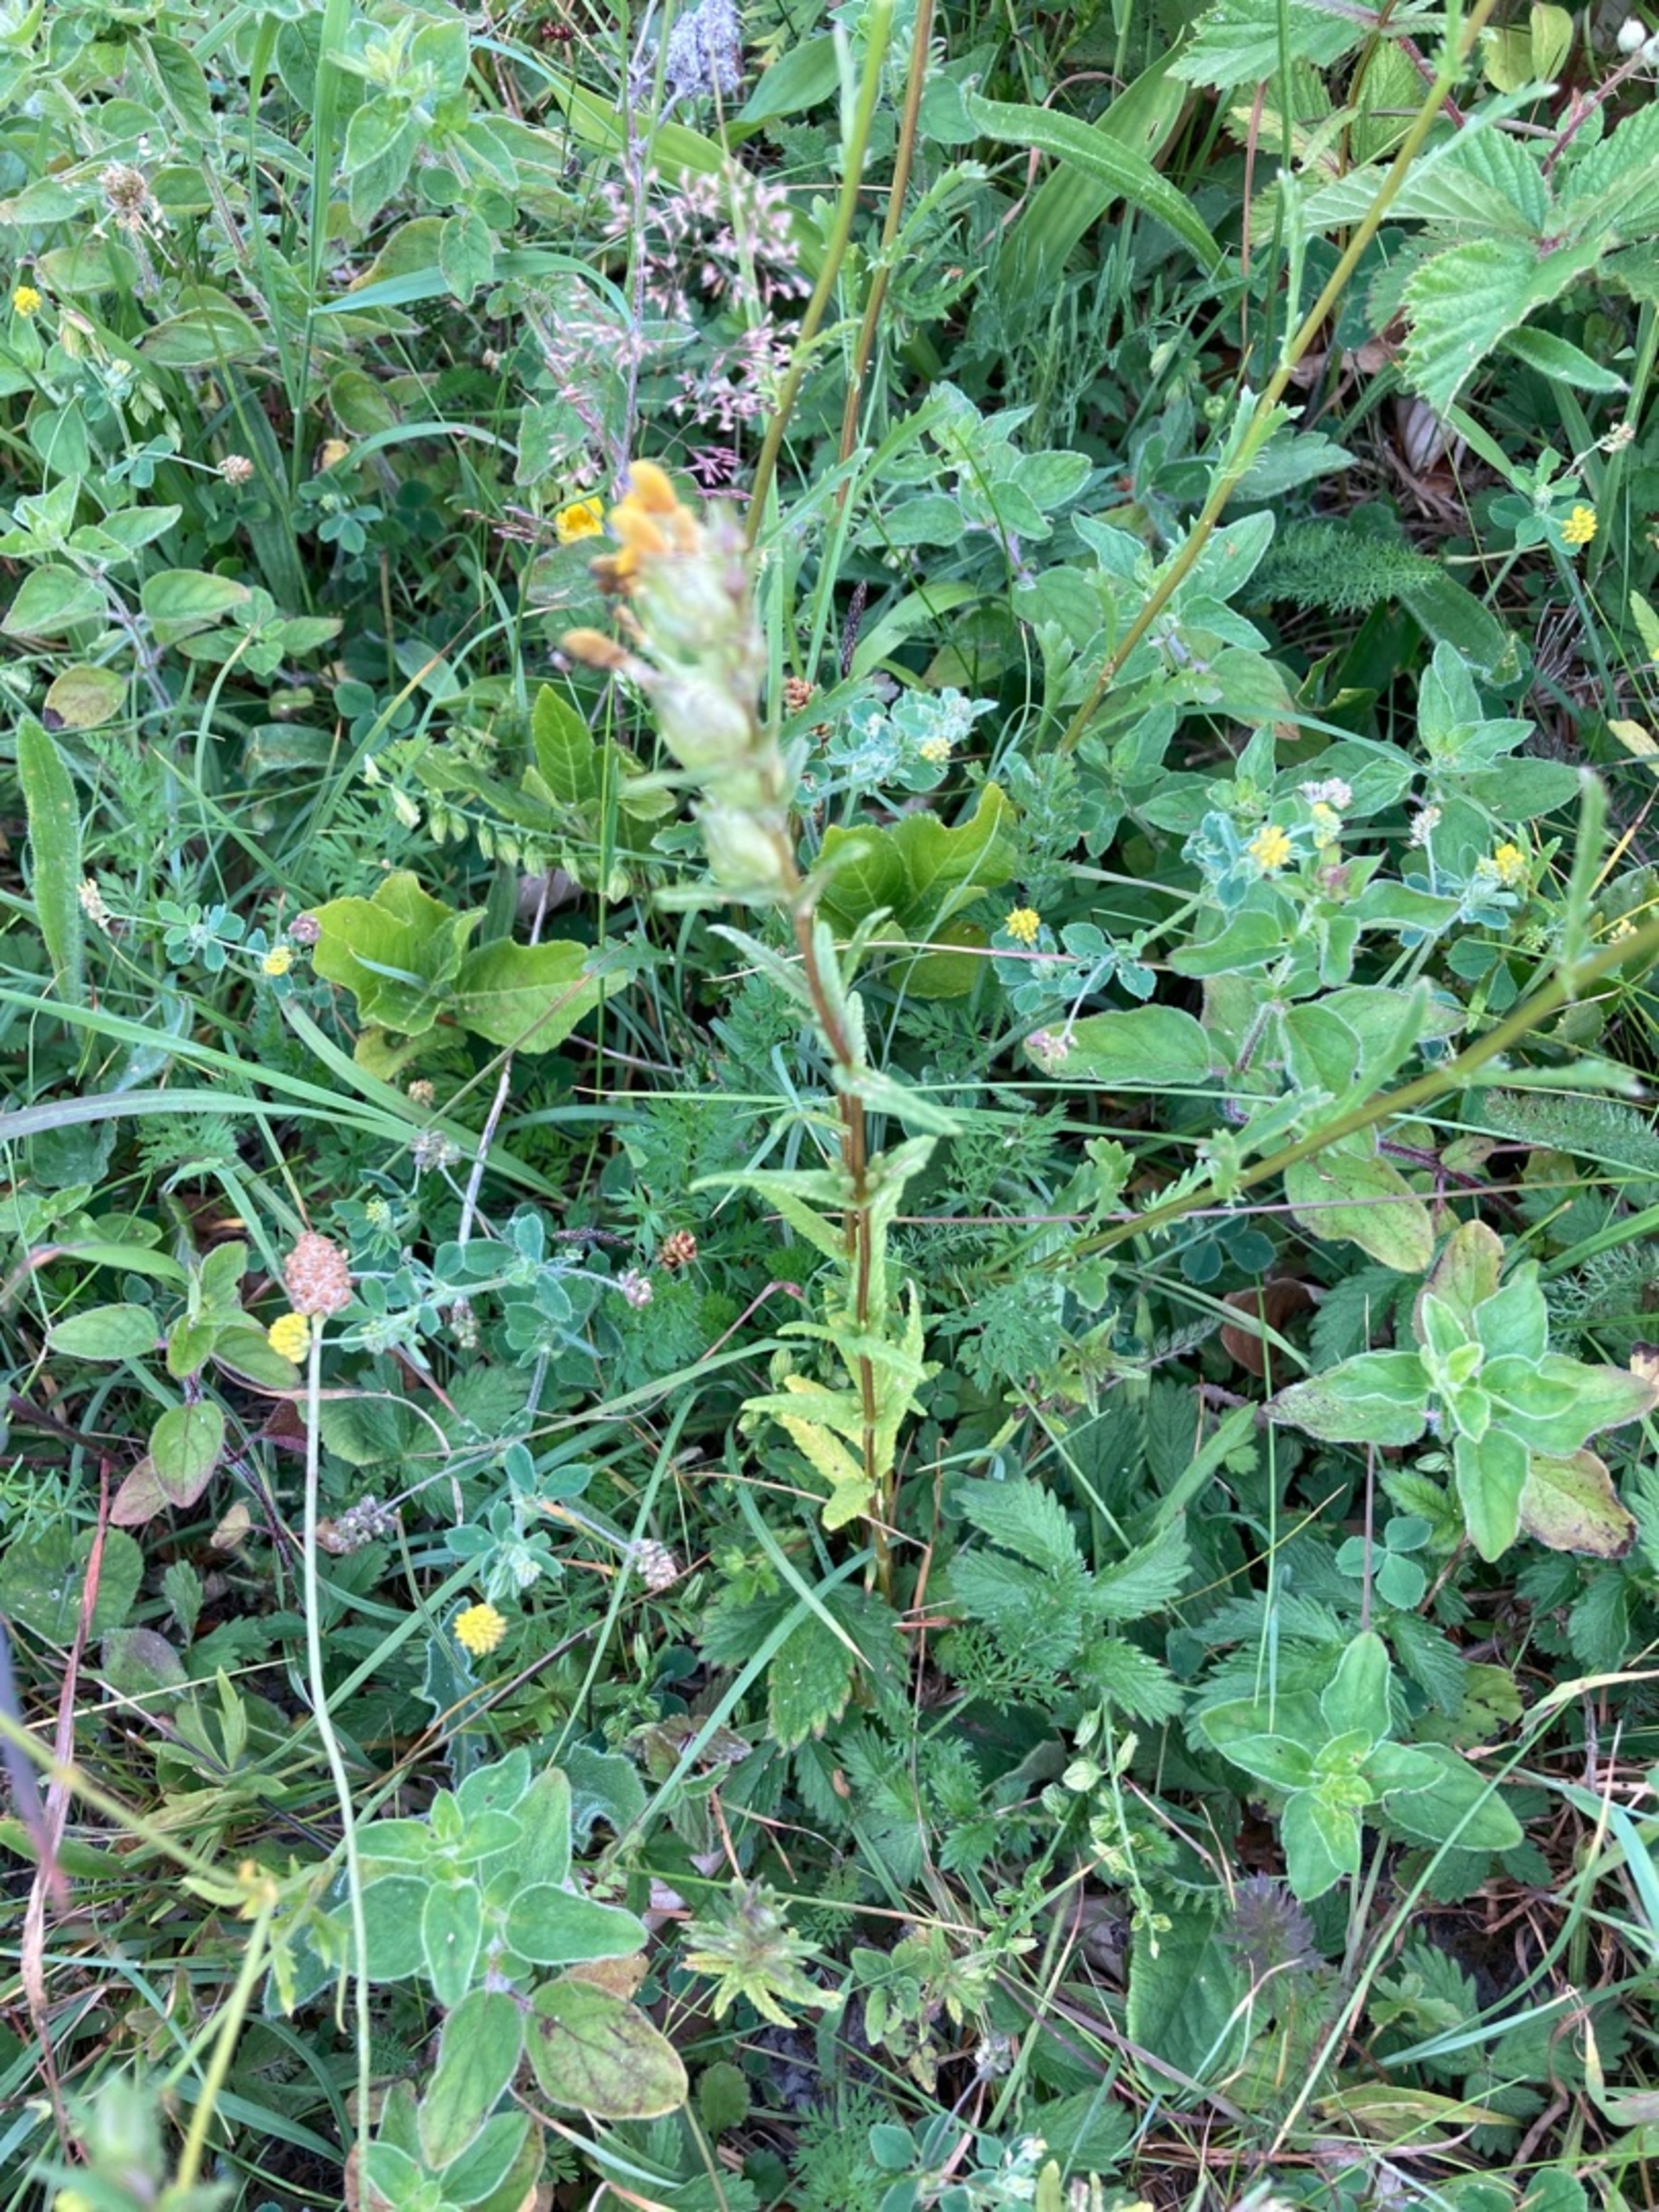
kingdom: Plantae
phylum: Tracheophyta
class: Magnoliopsida
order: Lamiales
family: Orobanchaceae
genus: Rhinanthus
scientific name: Rhinanthus
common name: Stor skjaller
